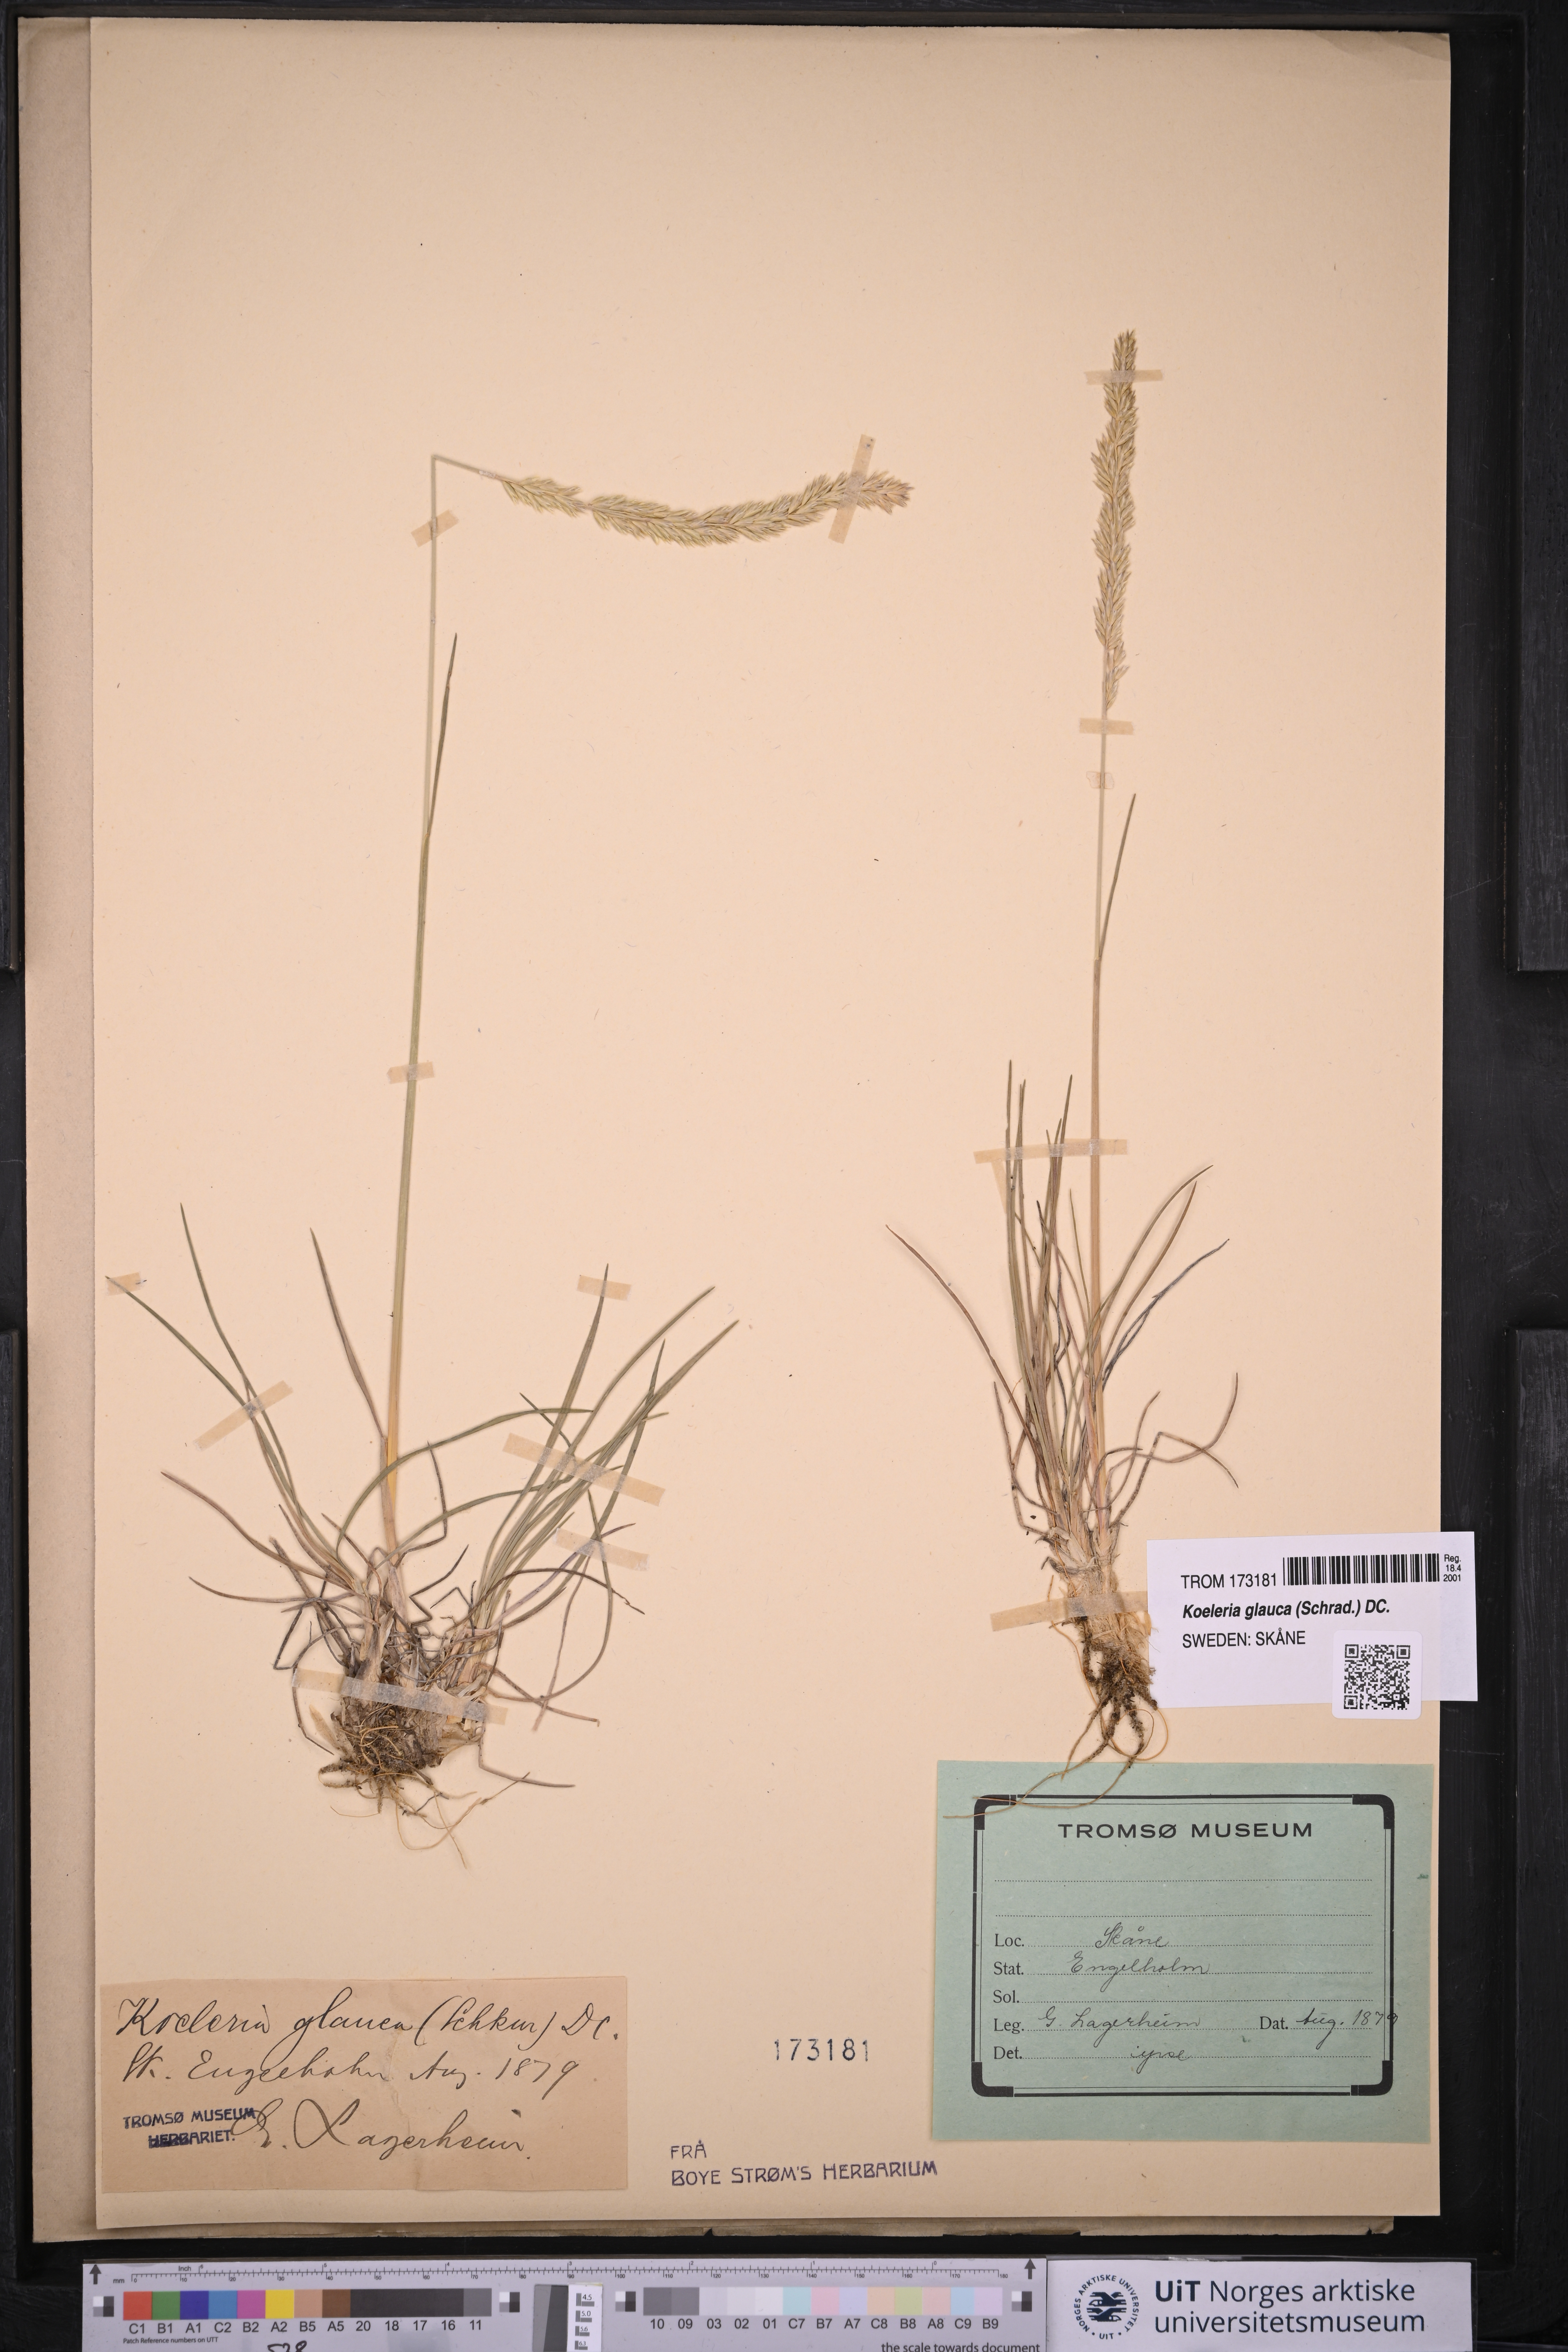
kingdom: Plantae
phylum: Tracheophyta
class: Liliopsida
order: Poales
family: Poaceae
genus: Koeleria
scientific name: Koeleria glauca
